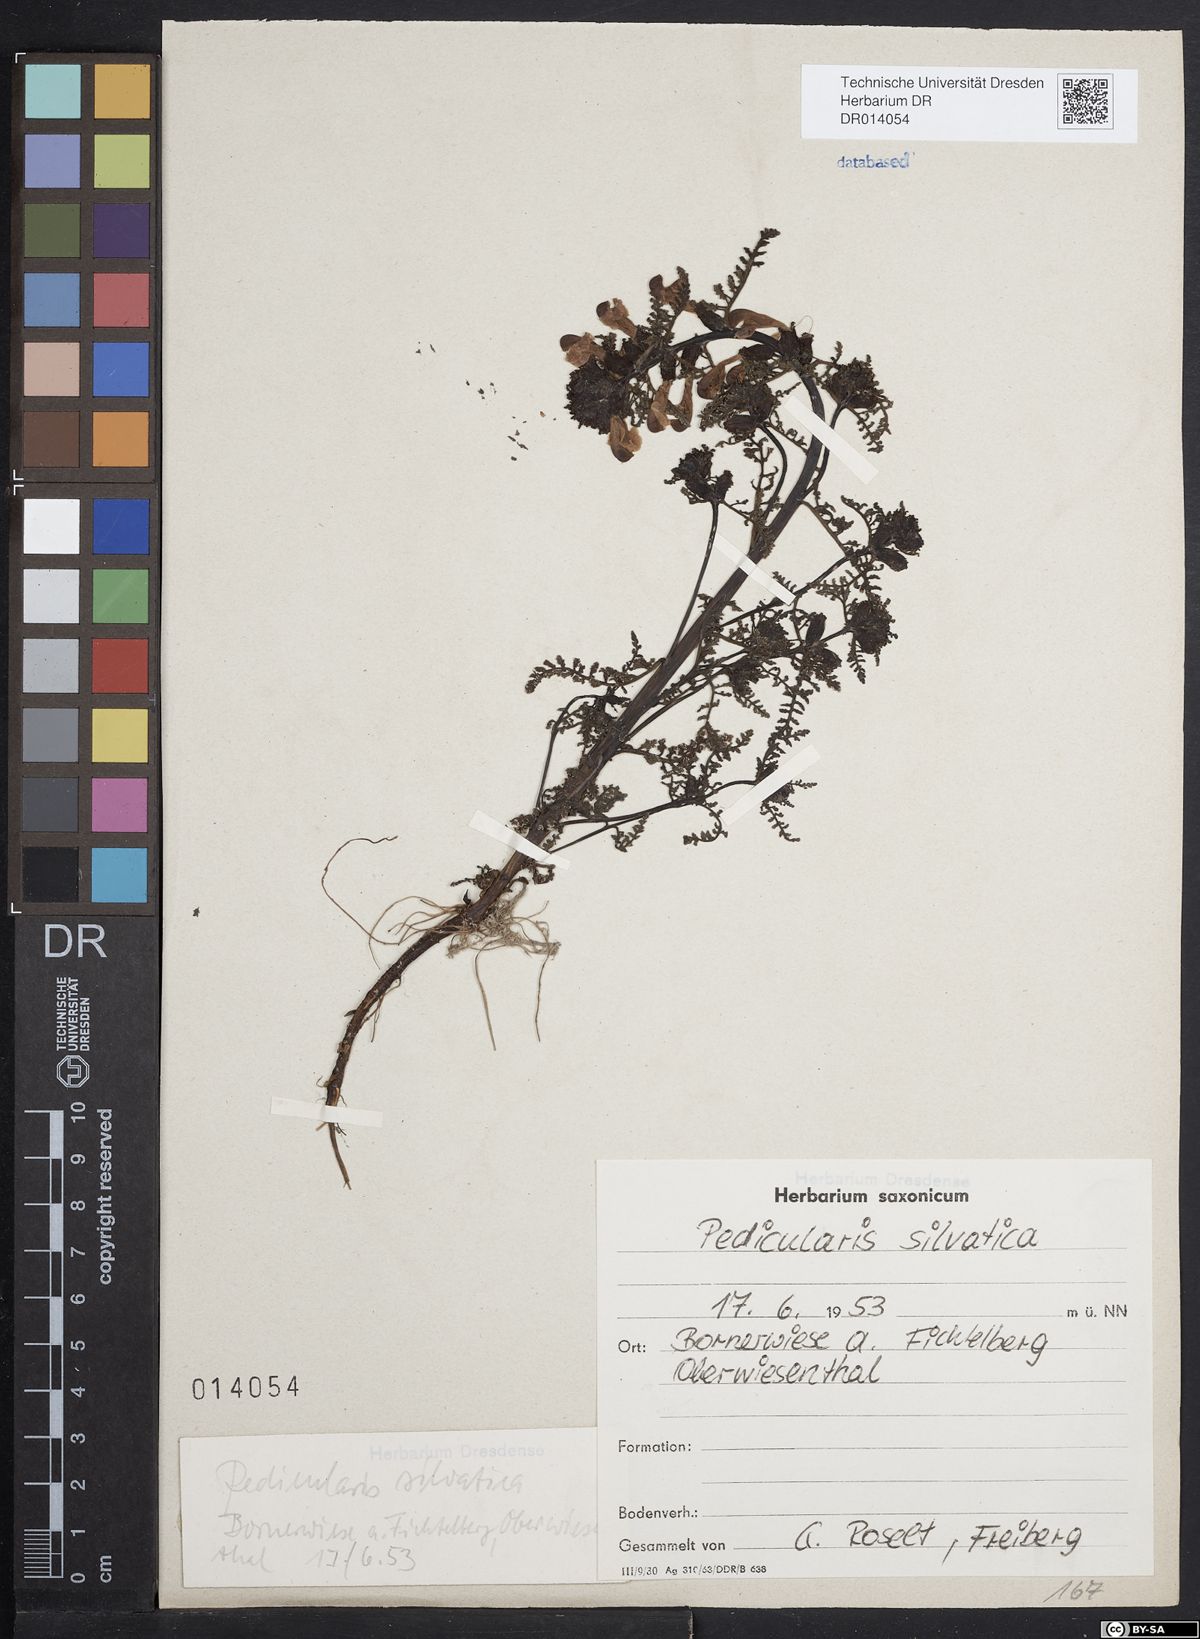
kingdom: Plantae
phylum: Tracheophyta
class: Magnoliopsida
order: Lamiales
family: Orobanchaceae
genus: Pedicularis
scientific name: Pedicularis sylvatica
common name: Lousewort
